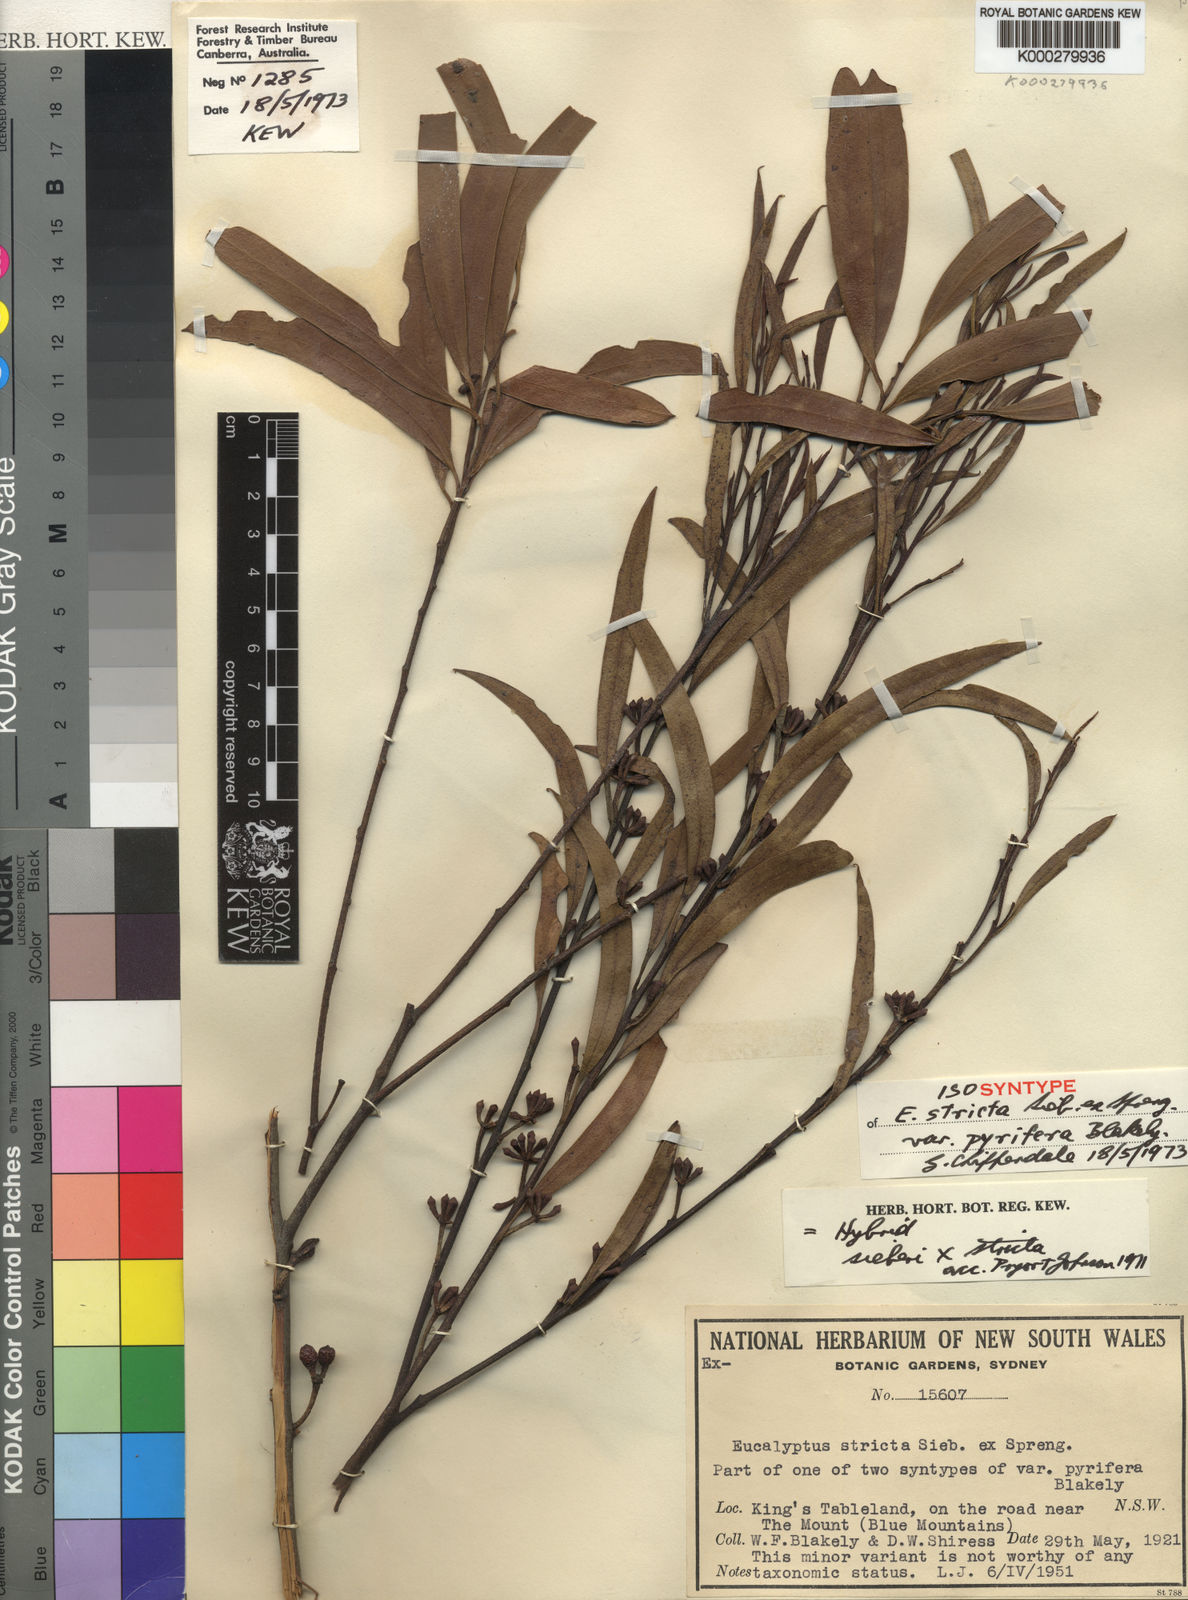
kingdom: Plantae
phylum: Tracheophyta
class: Magnoliopsida
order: Myrtales
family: Myrtaceae
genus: Eucalyptus
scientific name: Eucalyptus stricta
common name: Blue-mountain-malle-ash
